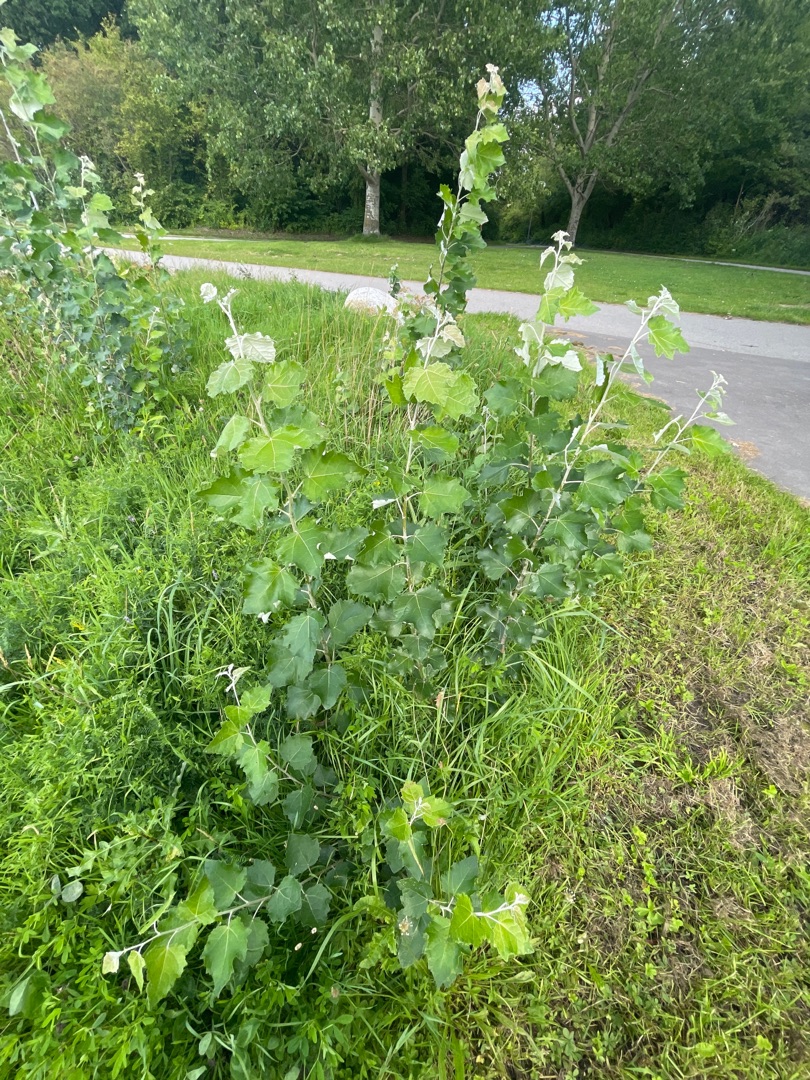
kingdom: Plantae
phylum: Tracheophyta
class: Magnoliopsida
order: Malpighiales
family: Salicaceae
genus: Populus
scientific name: Populus alba
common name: Sølv-poppel
